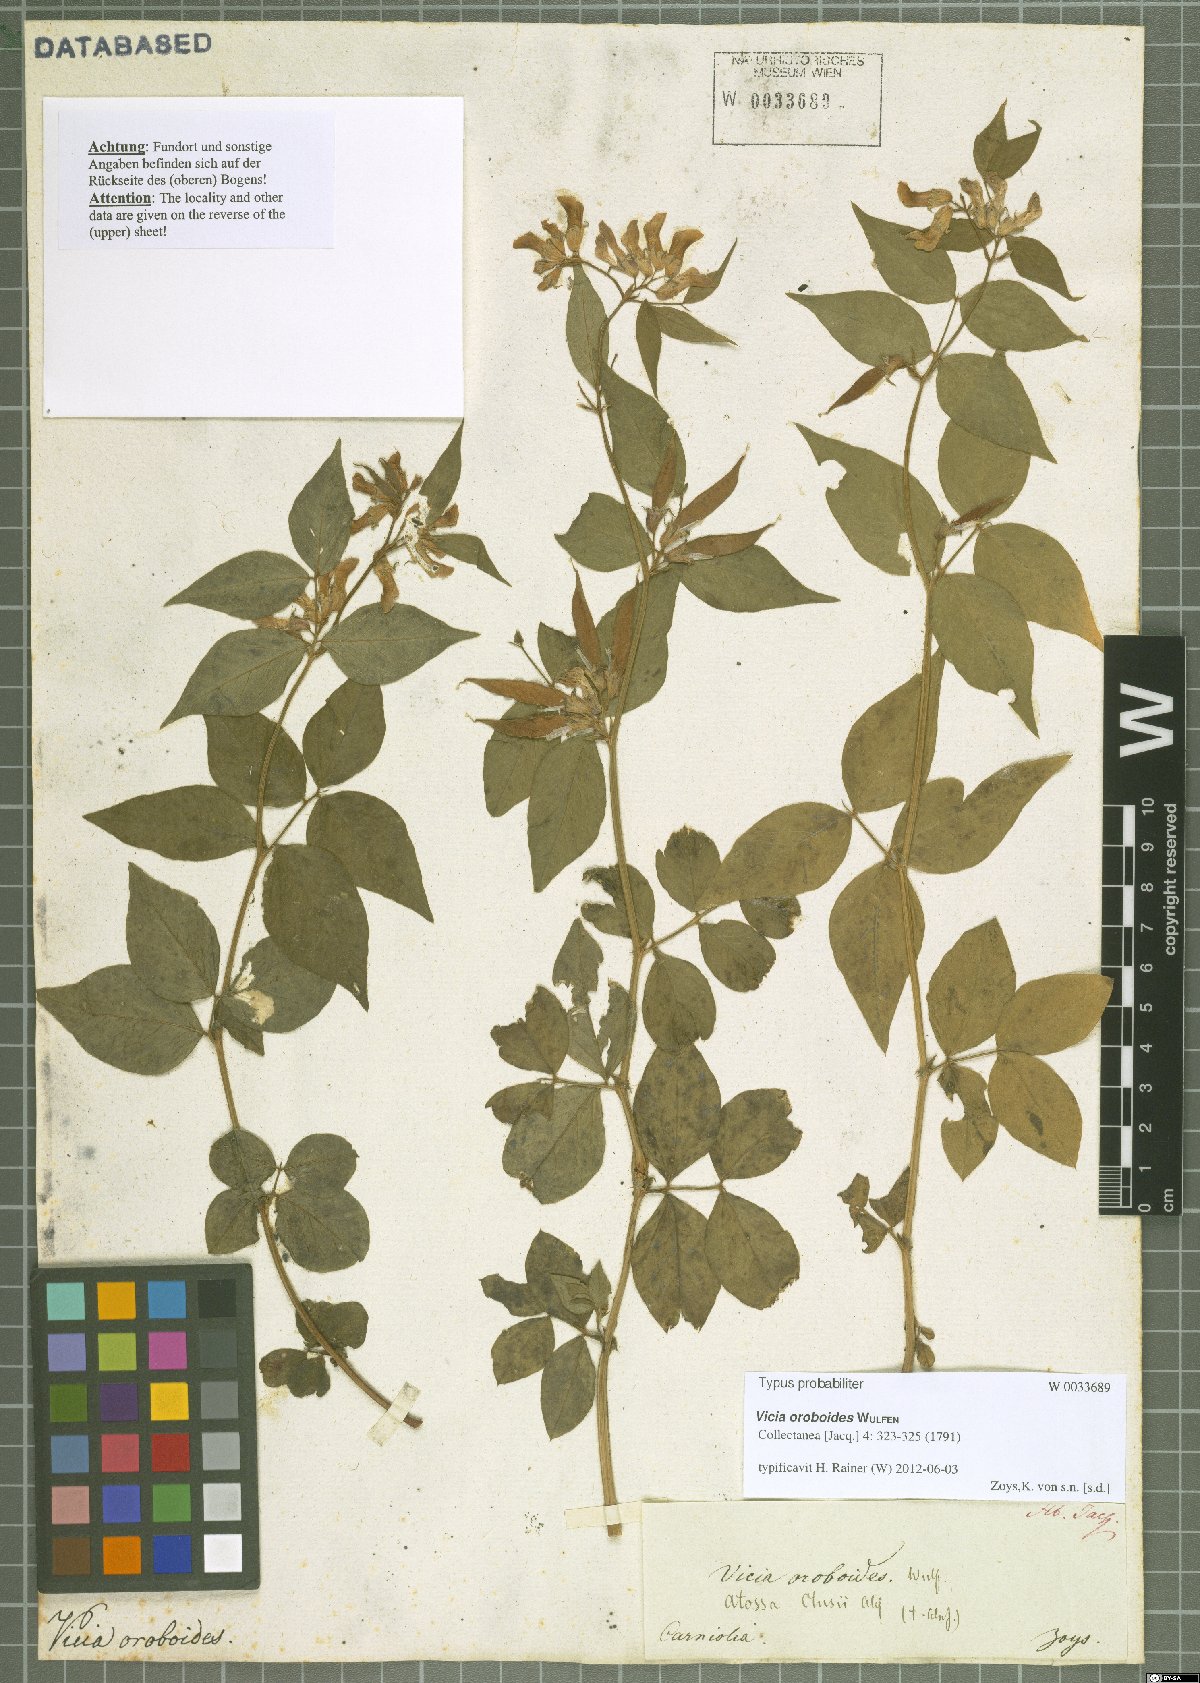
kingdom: Plantae
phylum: Tracheophyta
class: Magnoliopsida
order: Fabales
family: Fabaceae
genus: Vicia
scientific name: Vicia oroboides
